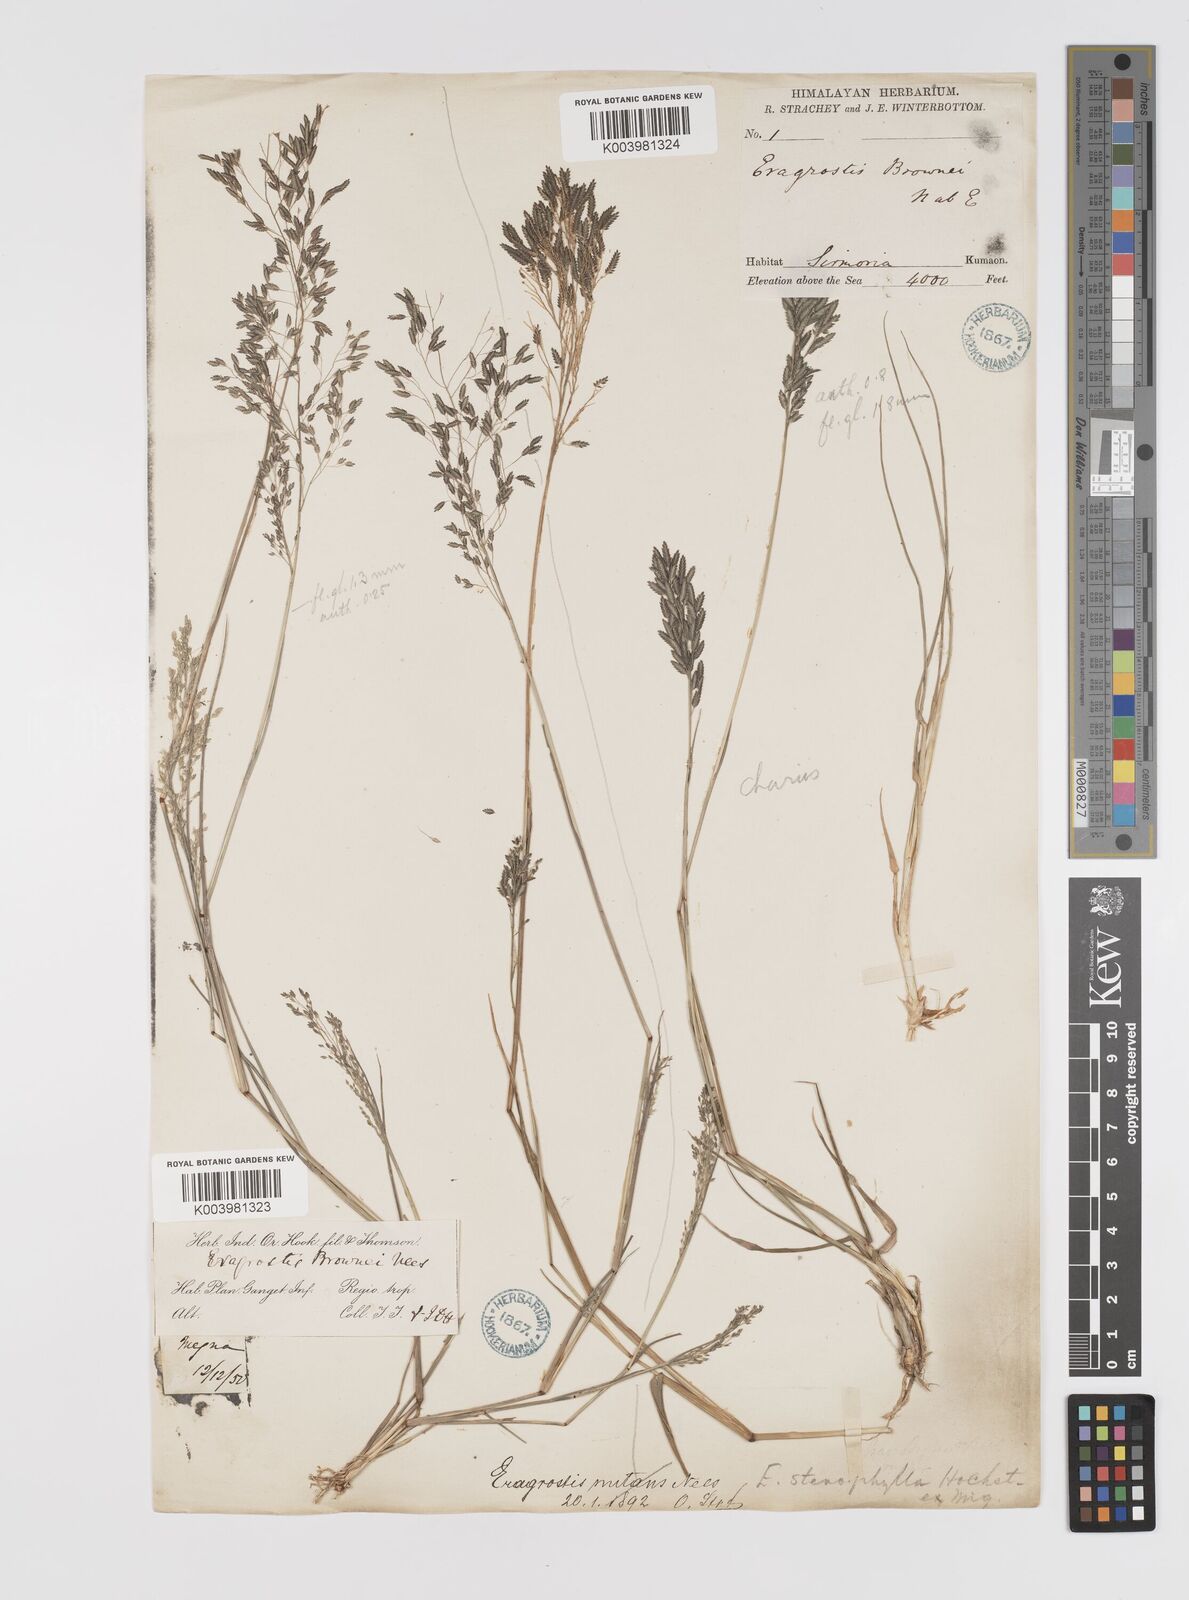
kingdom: Plantae
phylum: Tracheophyta
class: Liliopsida
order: Poales
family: Poaceae
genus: Eragrostis
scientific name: Eragrostis gangetica
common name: Slimflower lovegrass
